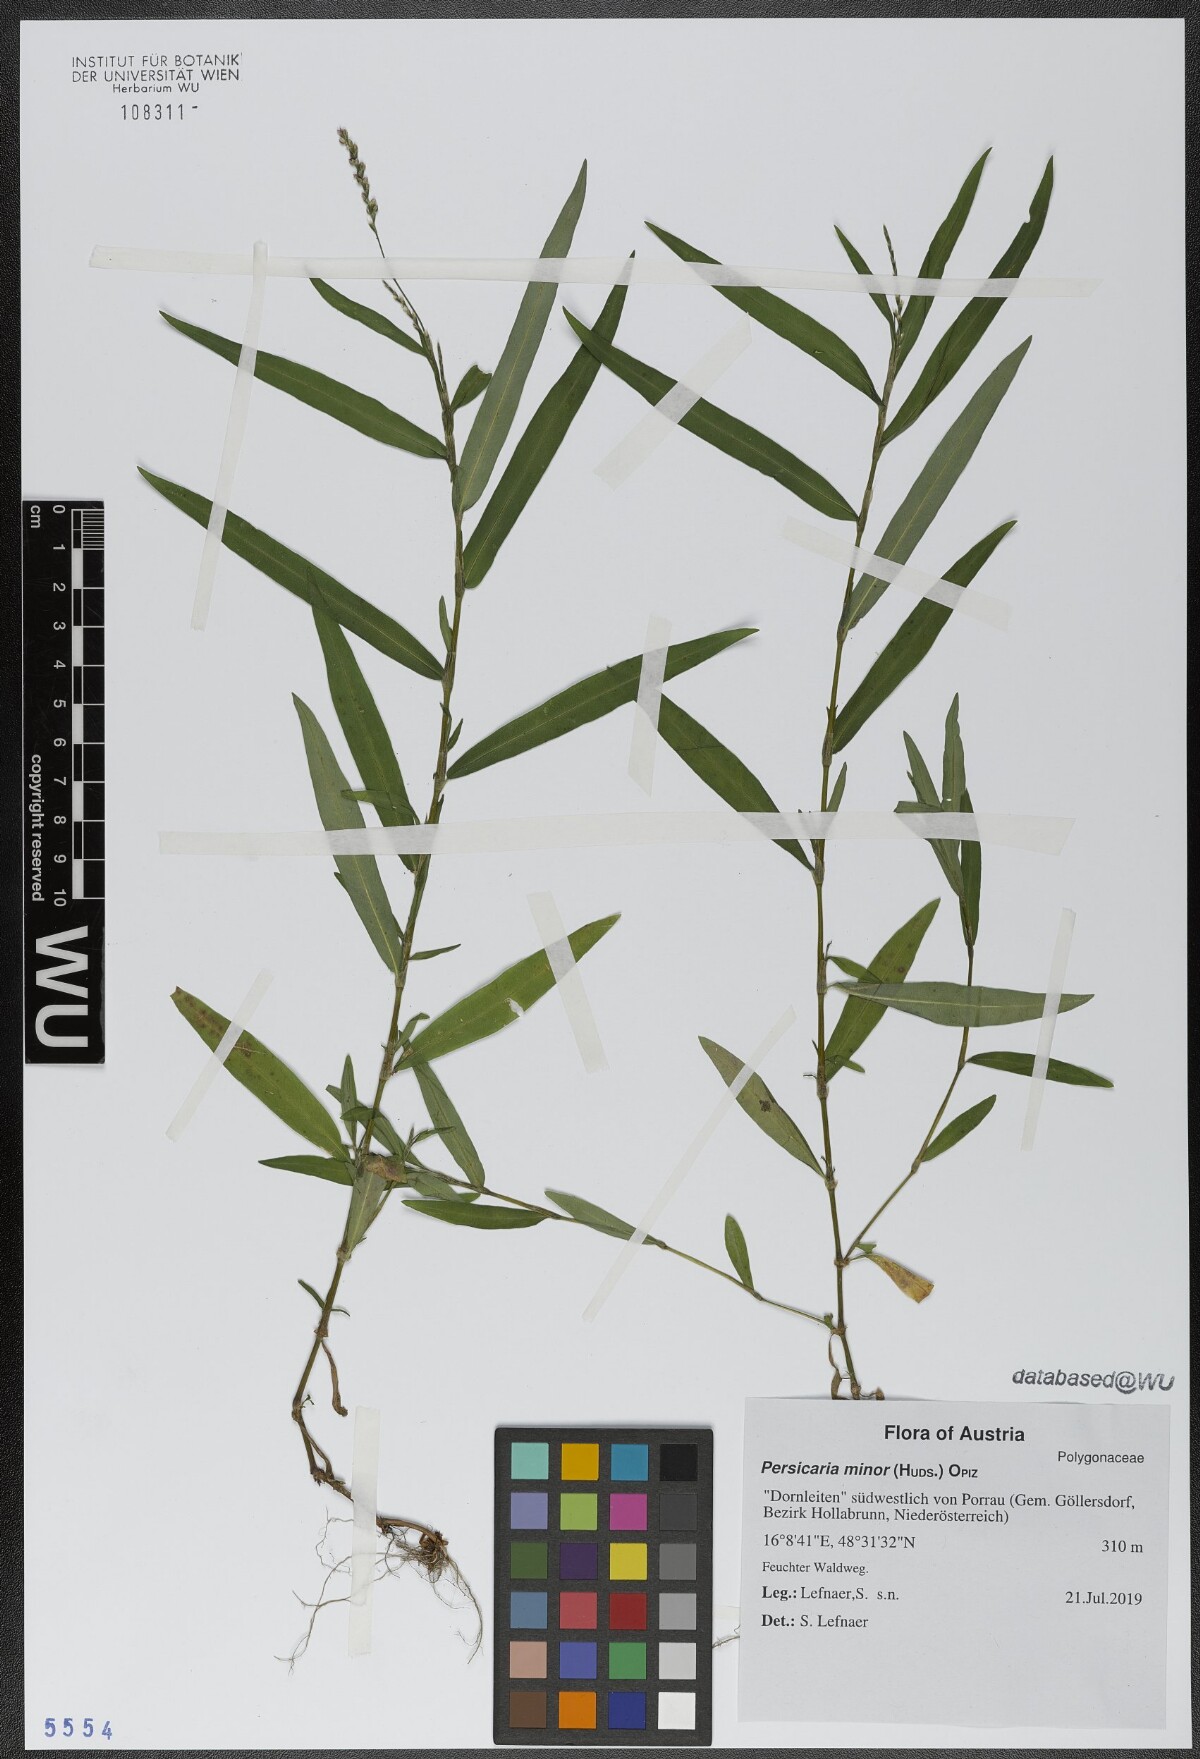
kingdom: Plantae
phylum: Tracheophyta
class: Magnoliopsida
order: Caryophyllales
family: Polygonaceae
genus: Persicaria
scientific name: Persicaria minor
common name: Small water-pepper
